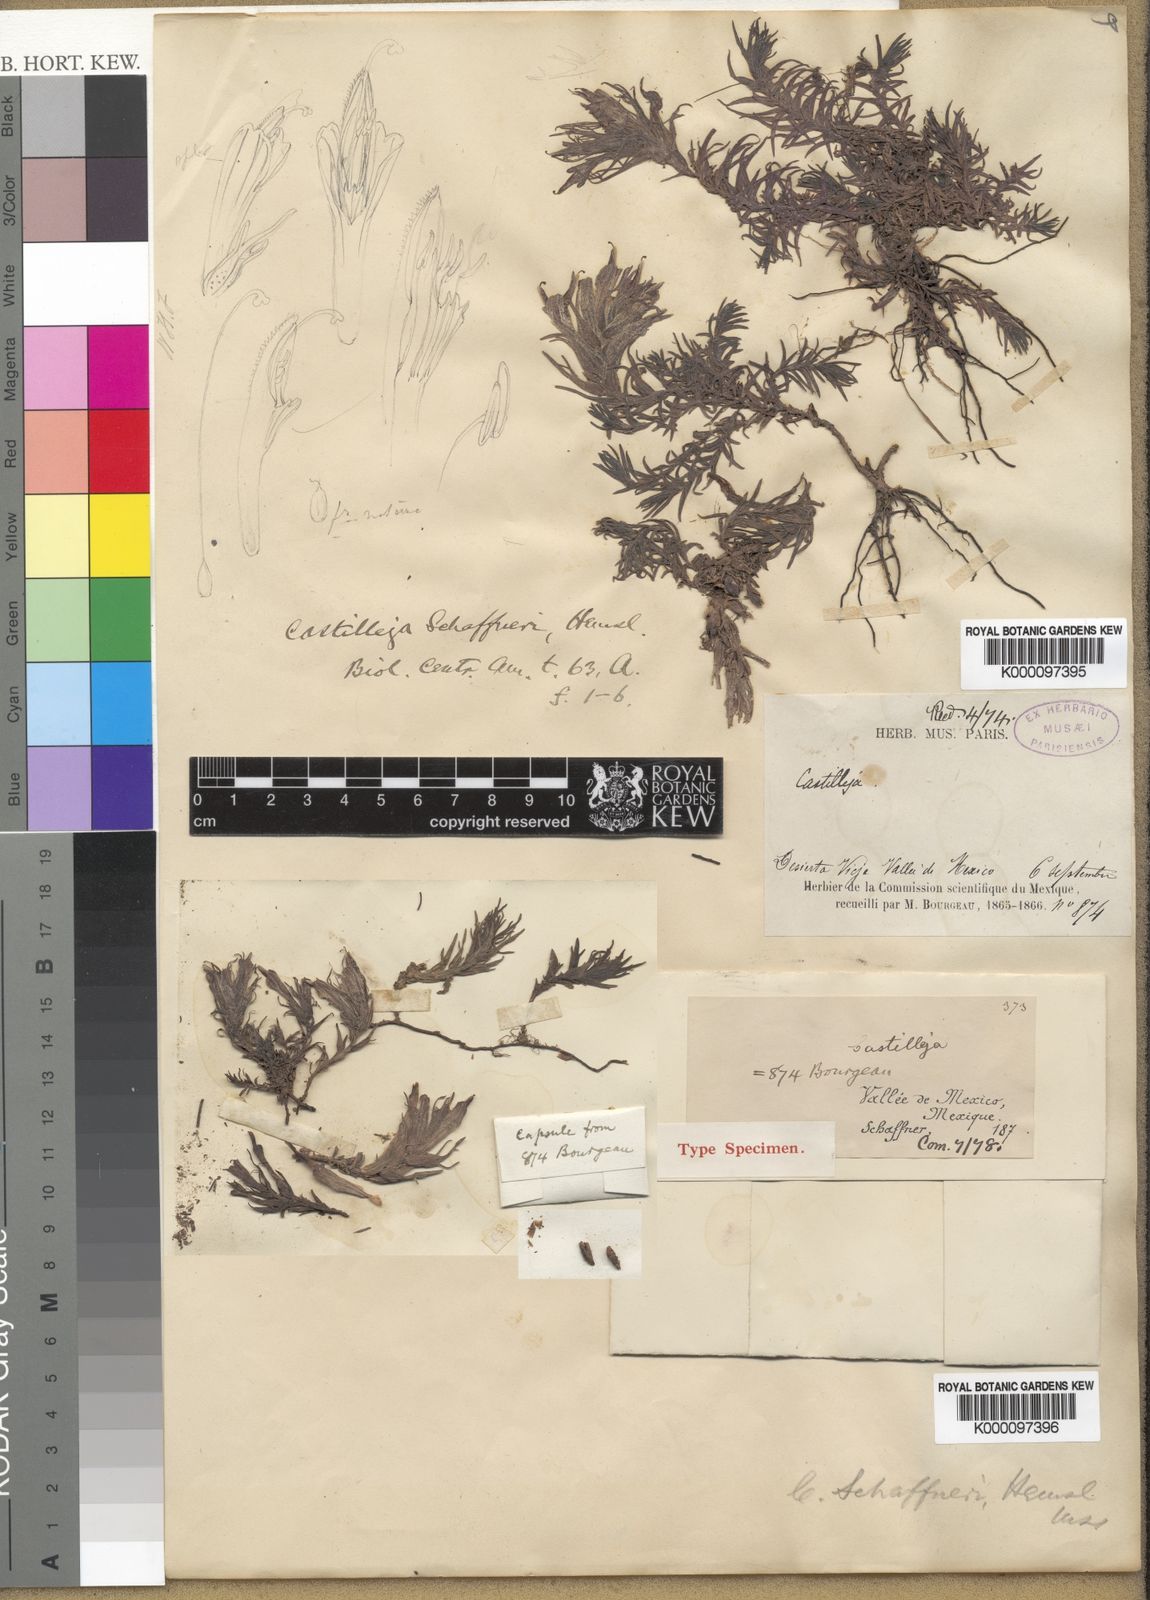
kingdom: Plantae
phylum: Tracheophyta
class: Magnoliopsida
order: Lamiales
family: Orobanchaceae
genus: Castilleja
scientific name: Castilleja moranensis
